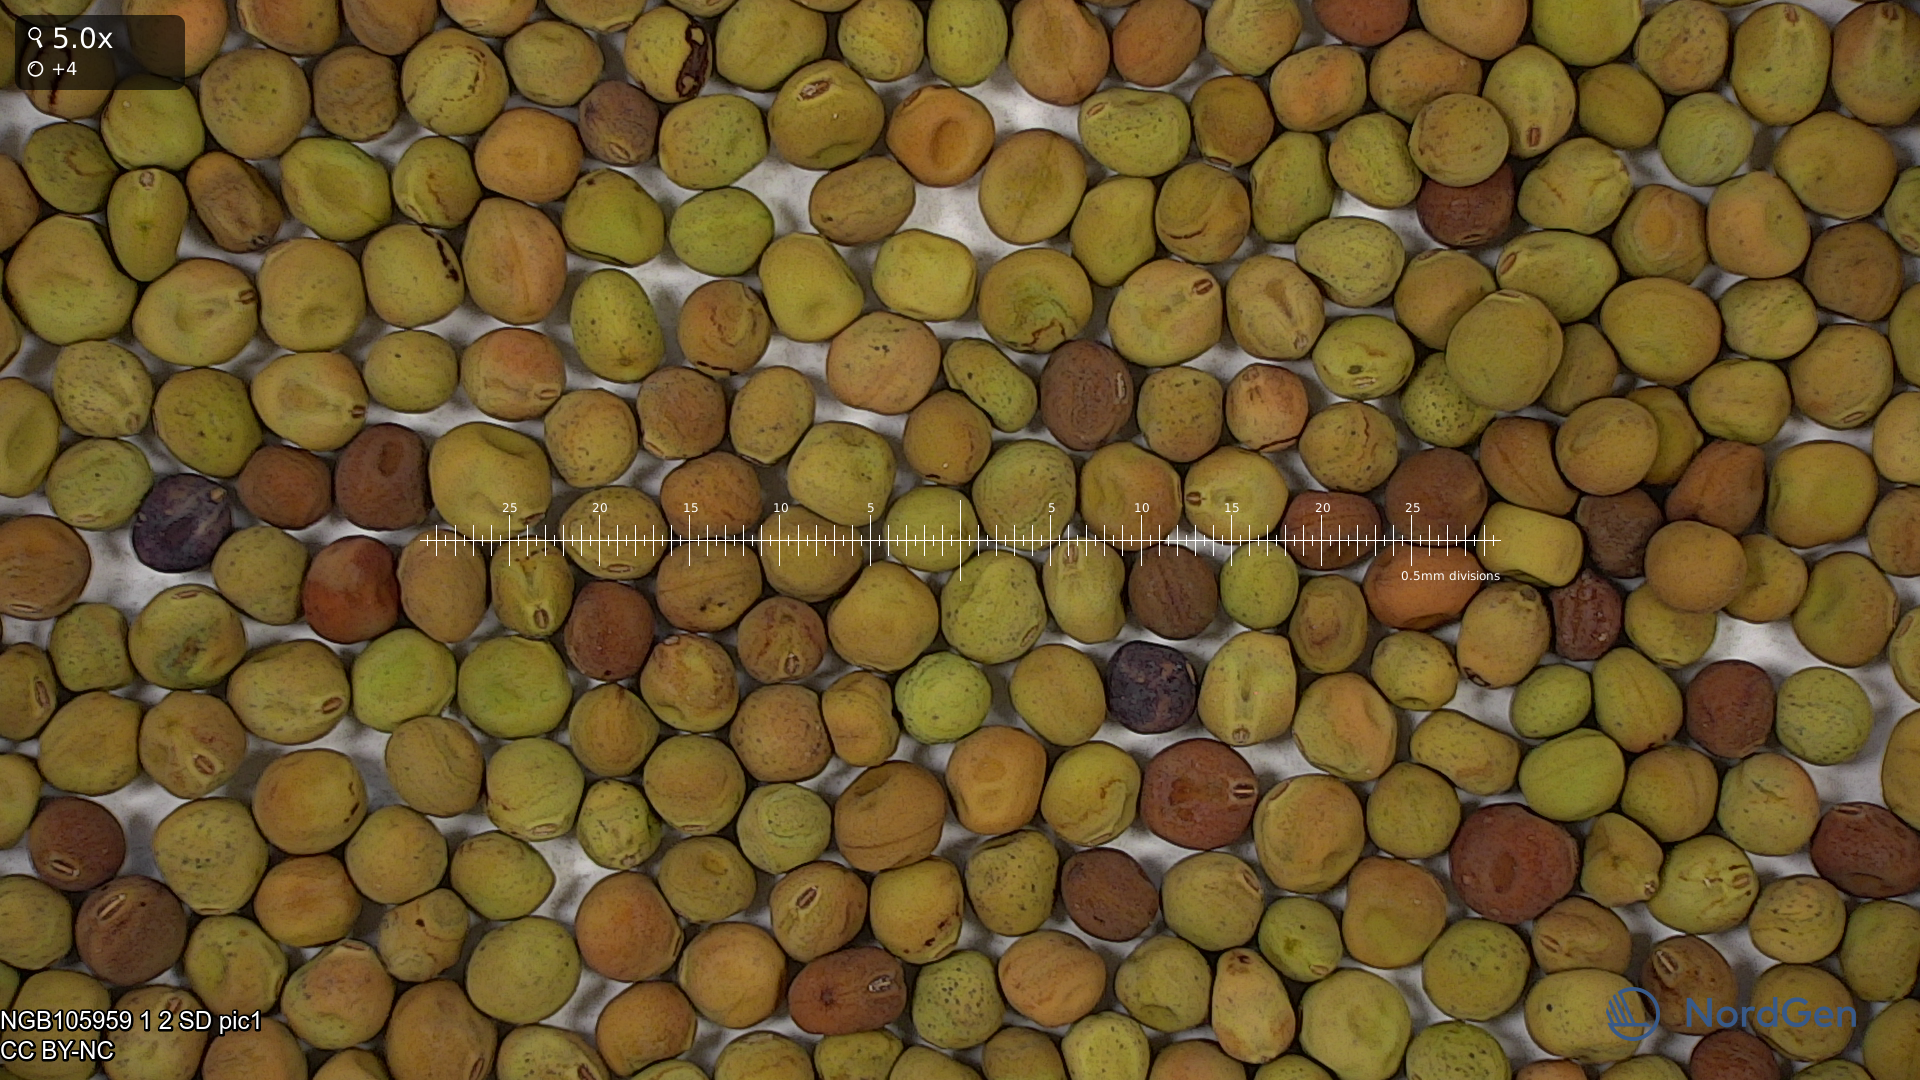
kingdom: Plantae
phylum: Tracheophyta
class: Magnoliopsida
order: Fabales
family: Fabaceae
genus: Lathyrus
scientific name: Lathyrus oleraceus
